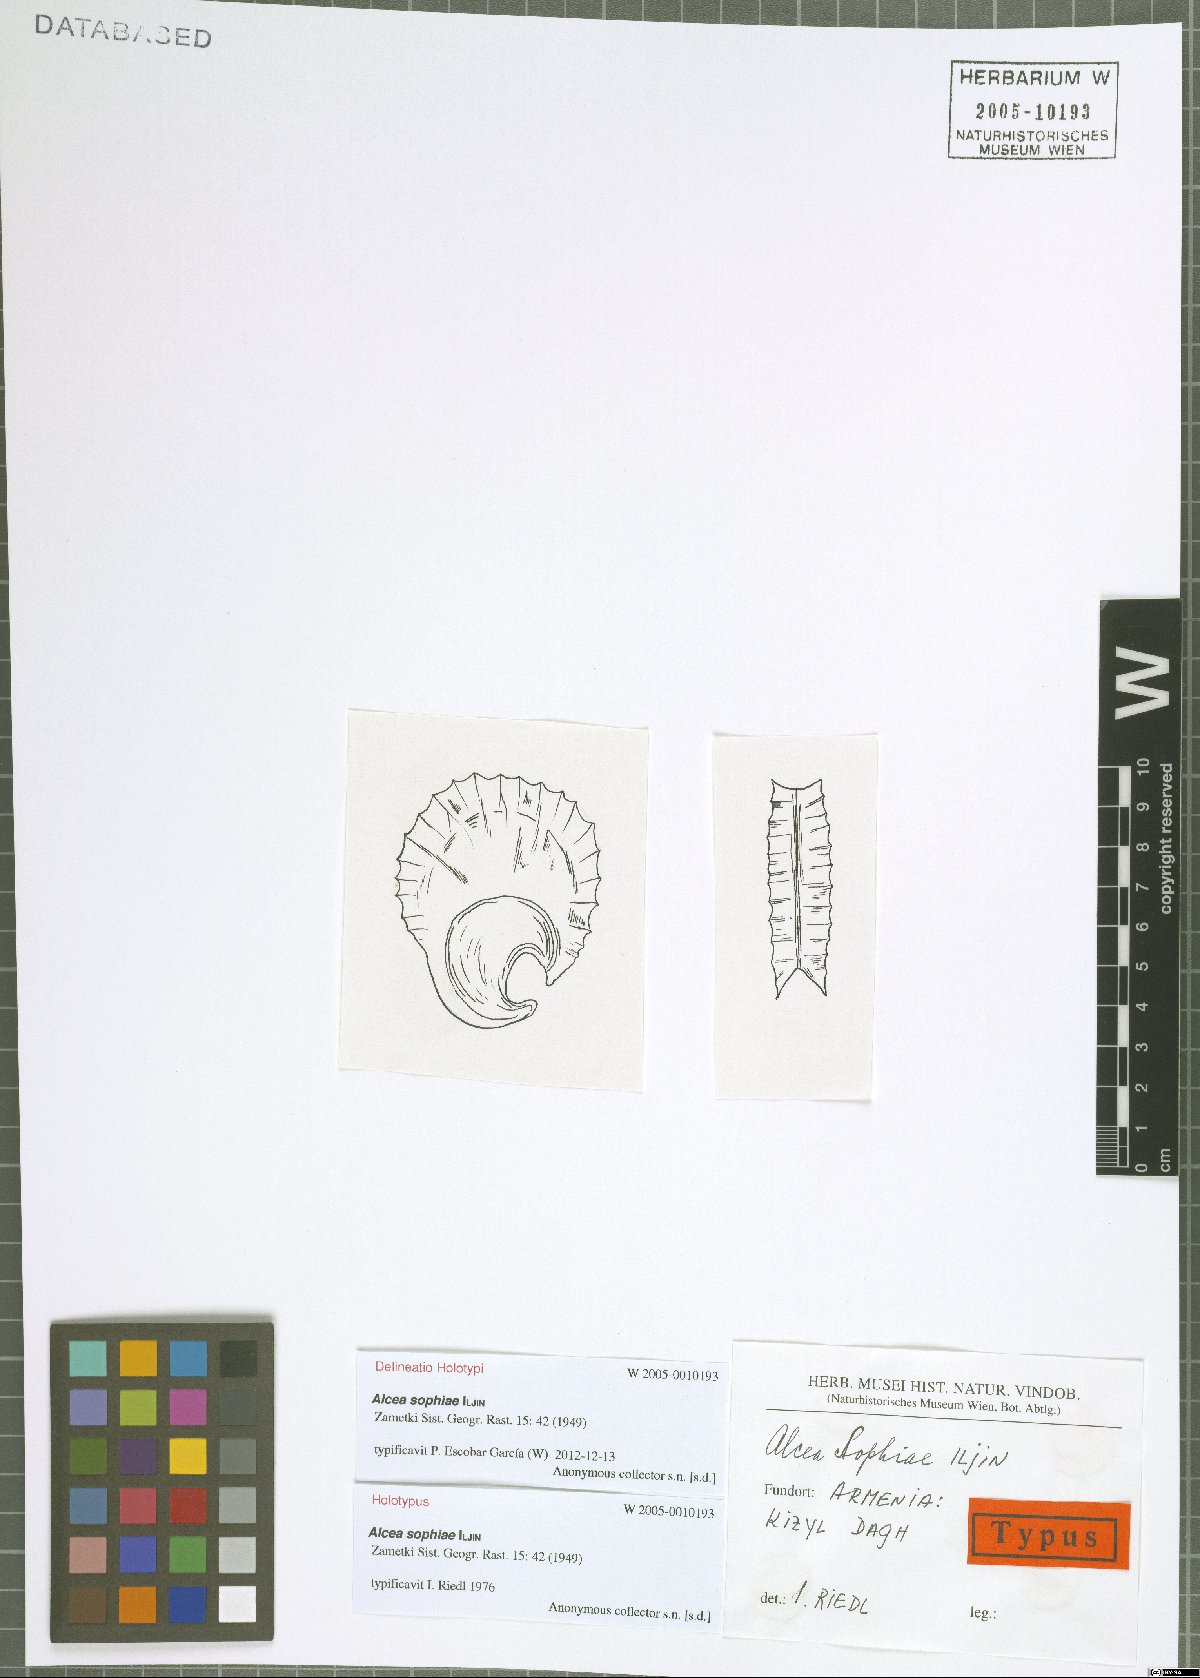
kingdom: Plantae
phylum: Tracheophyta
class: Magnoliopsida
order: Malvales
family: Malvaceae
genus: Alcea
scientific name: Alcea sophiae
